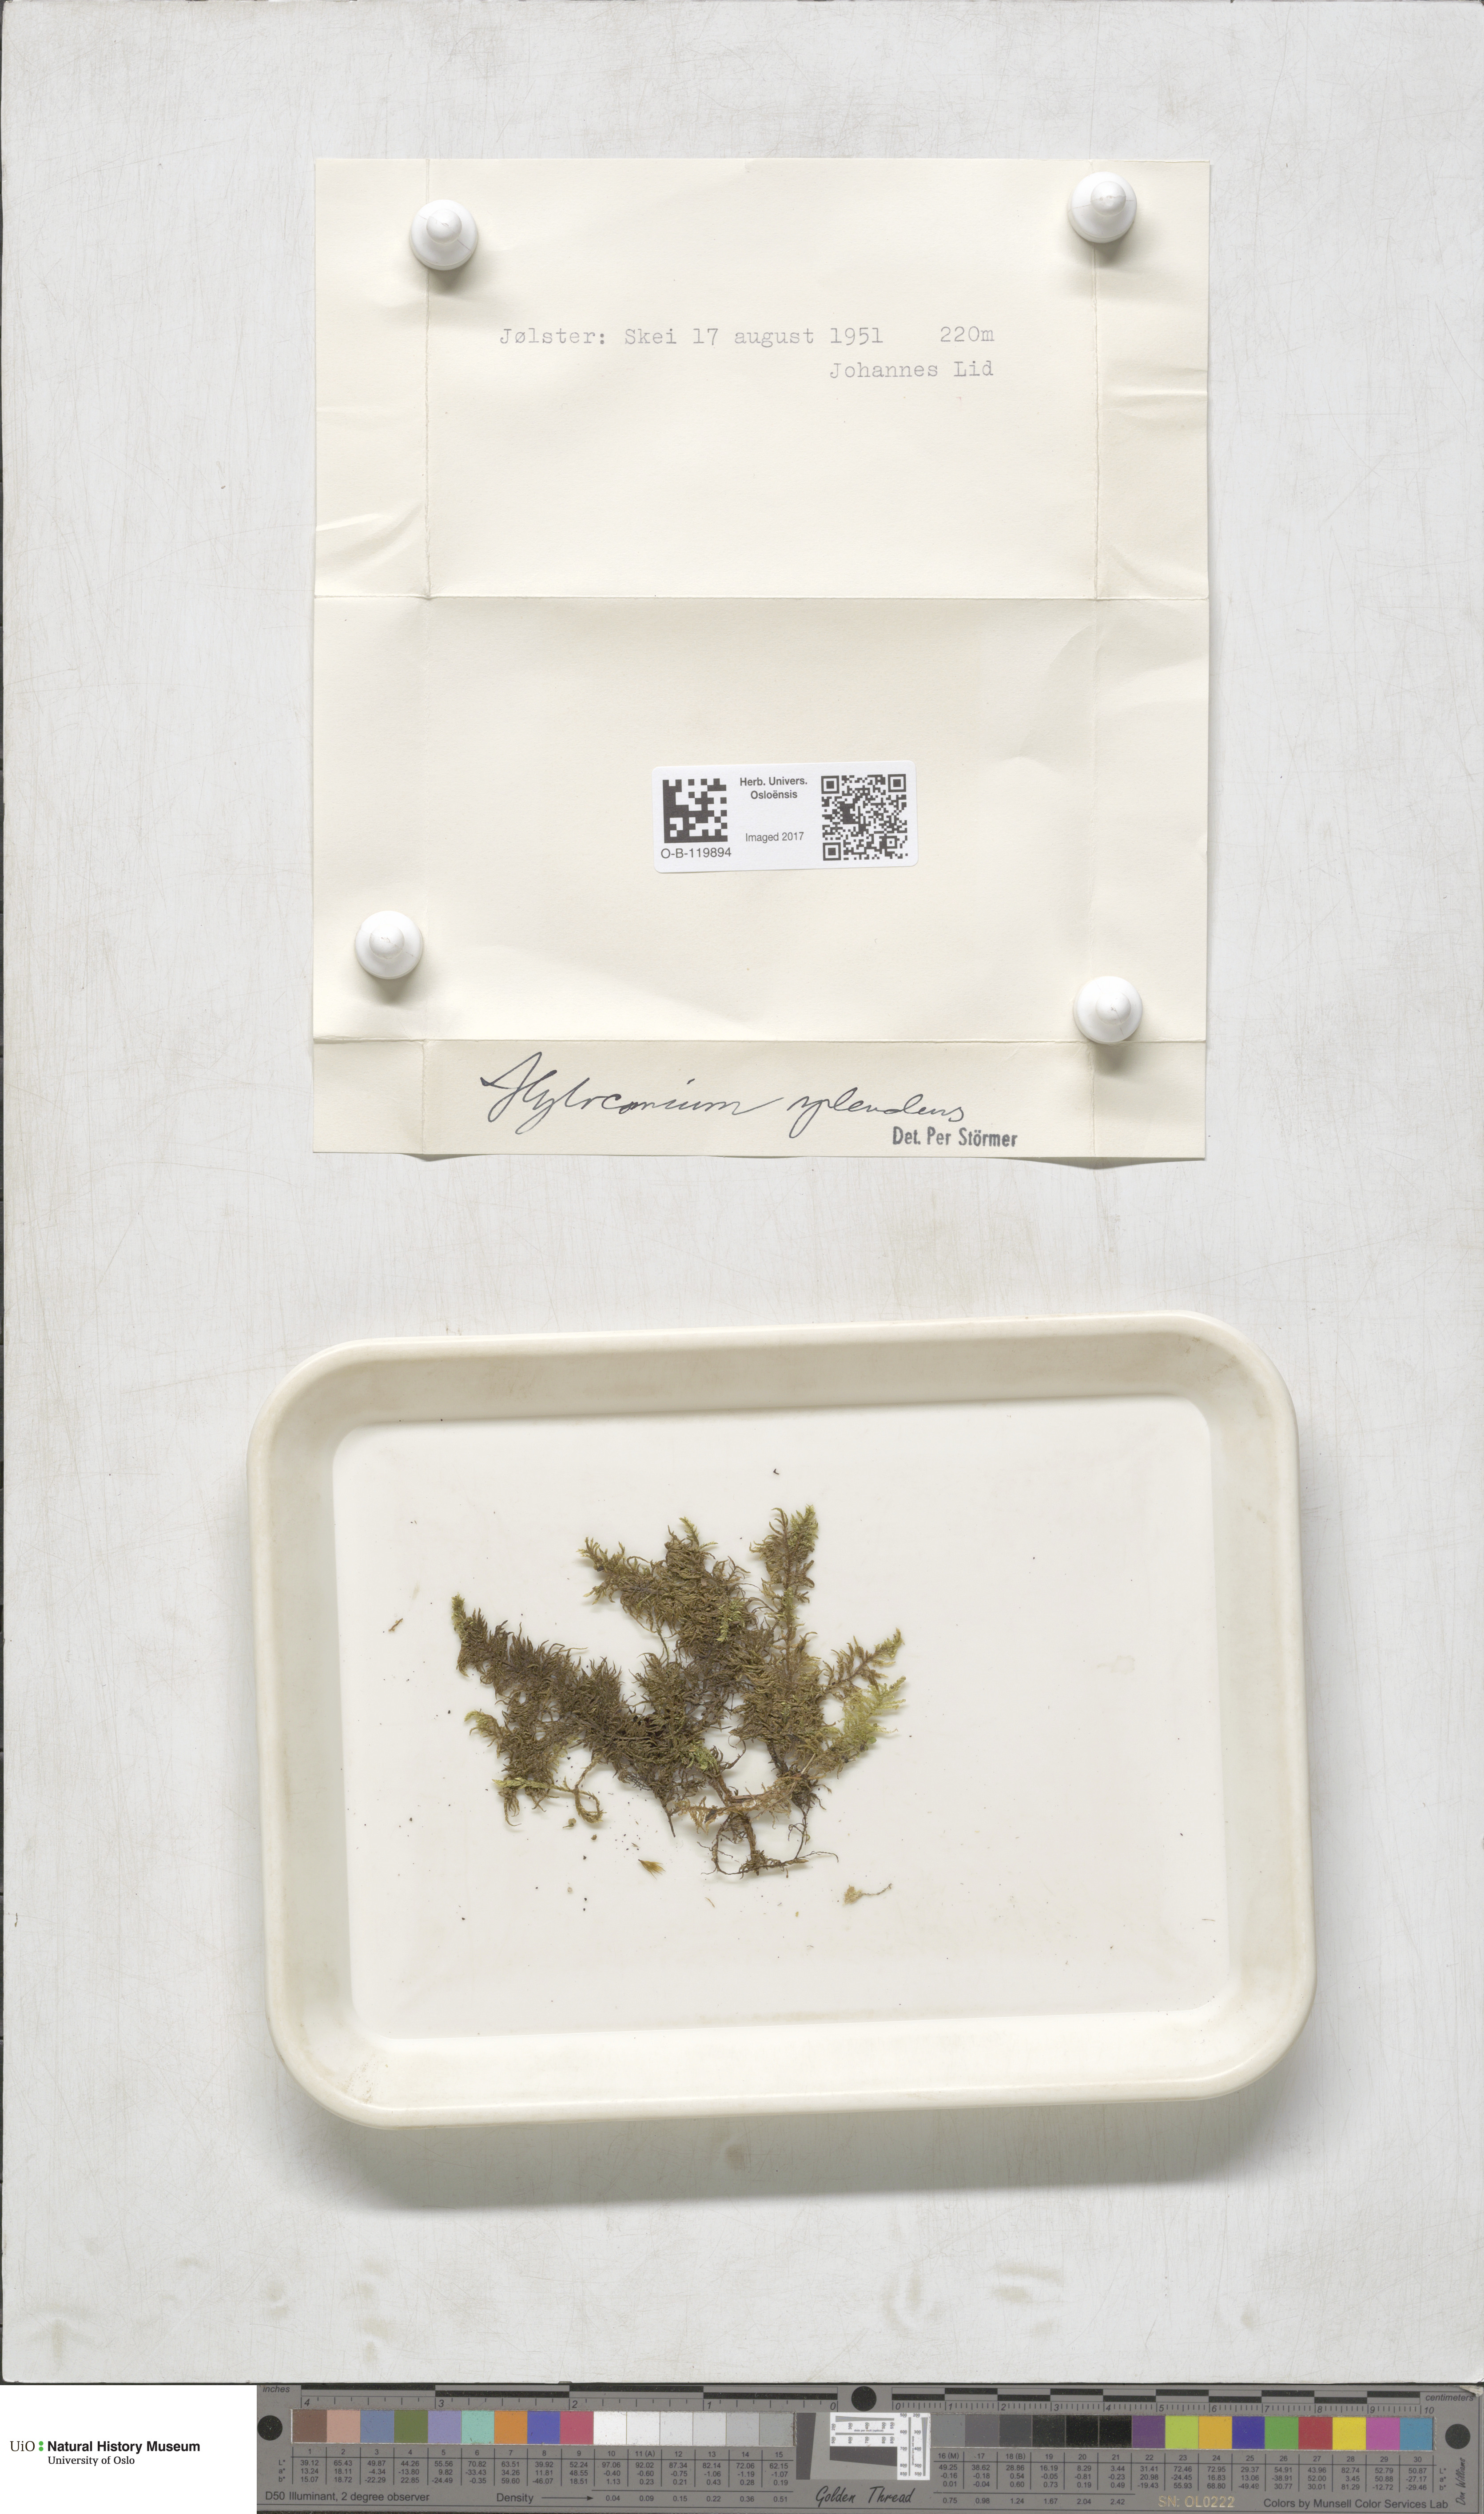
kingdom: Plantae
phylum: Bryophyta
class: Bryopsida
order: Hypnales
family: Hylocomiaceae
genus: Hylocomium
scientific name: Hylocomium splendens
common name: Stairstep moss
